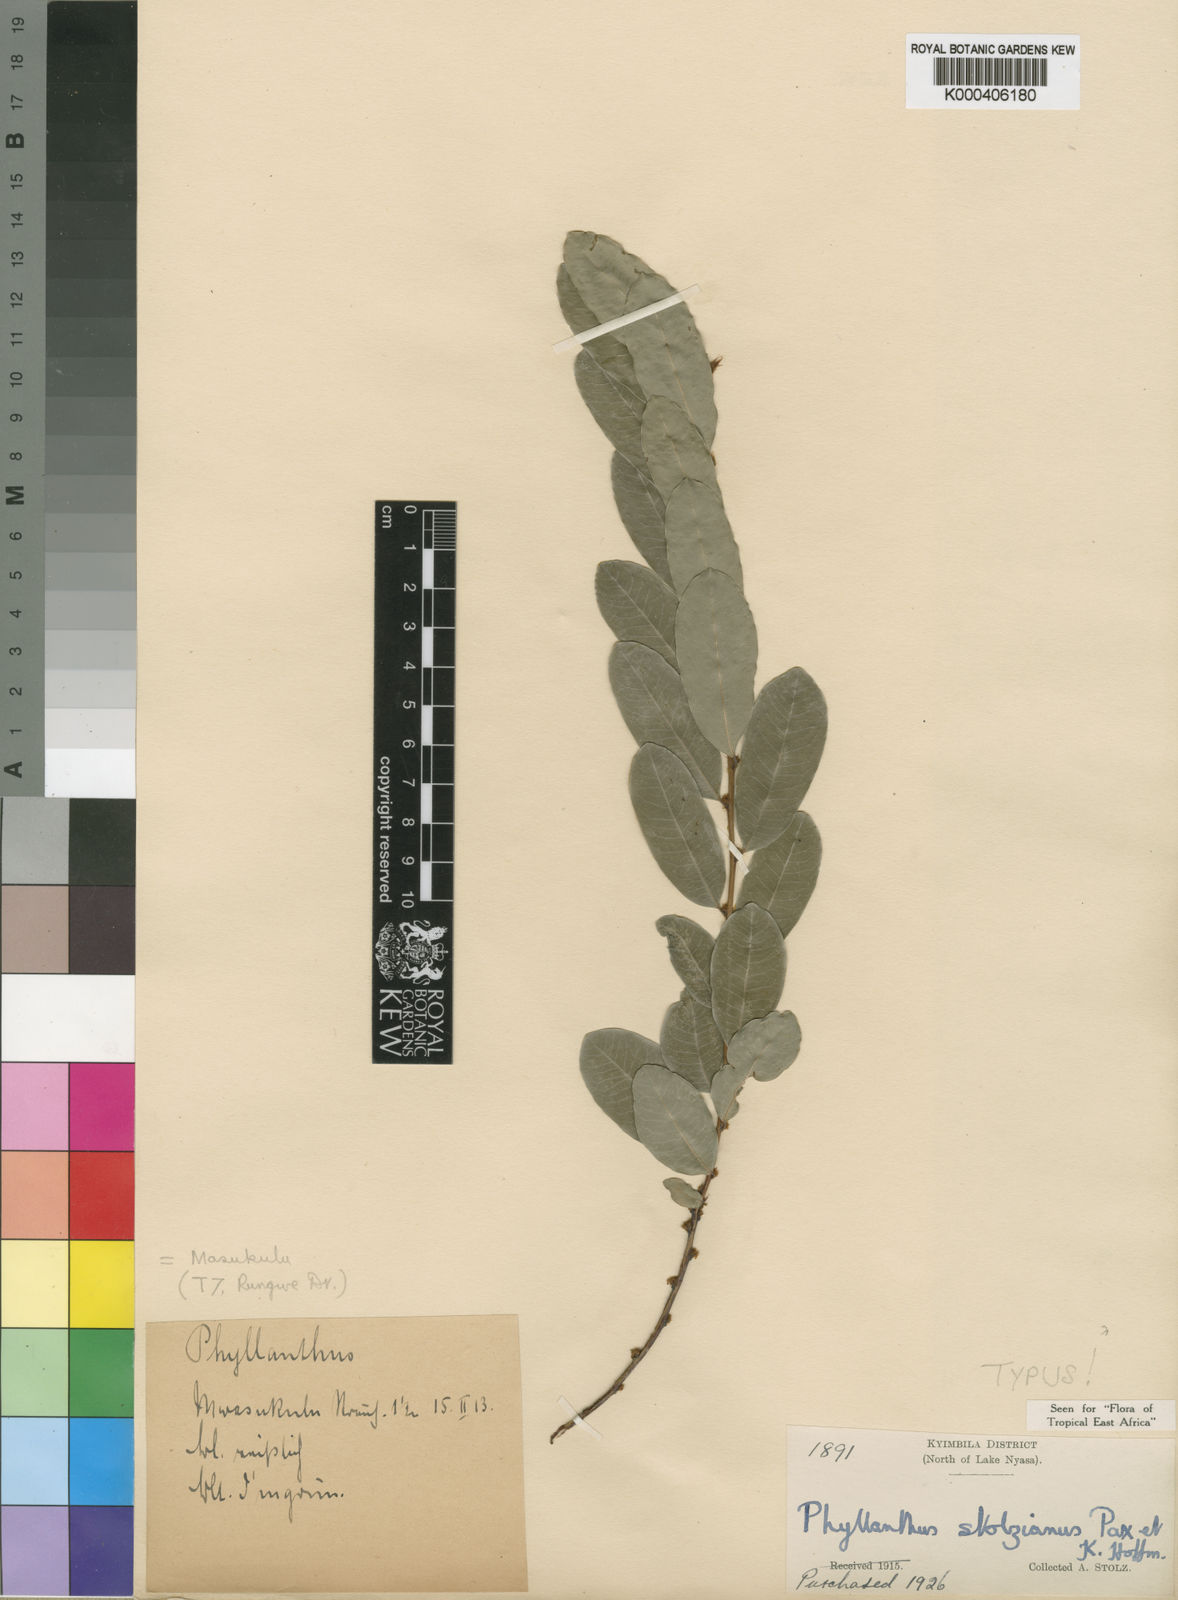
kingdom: Plantae
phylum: Tracheophyta
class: Magnoliopsida
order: Malpighiales
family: Phyllanthaceae
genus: Phyllanthus
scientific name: Phyllanthus welwitschianus
